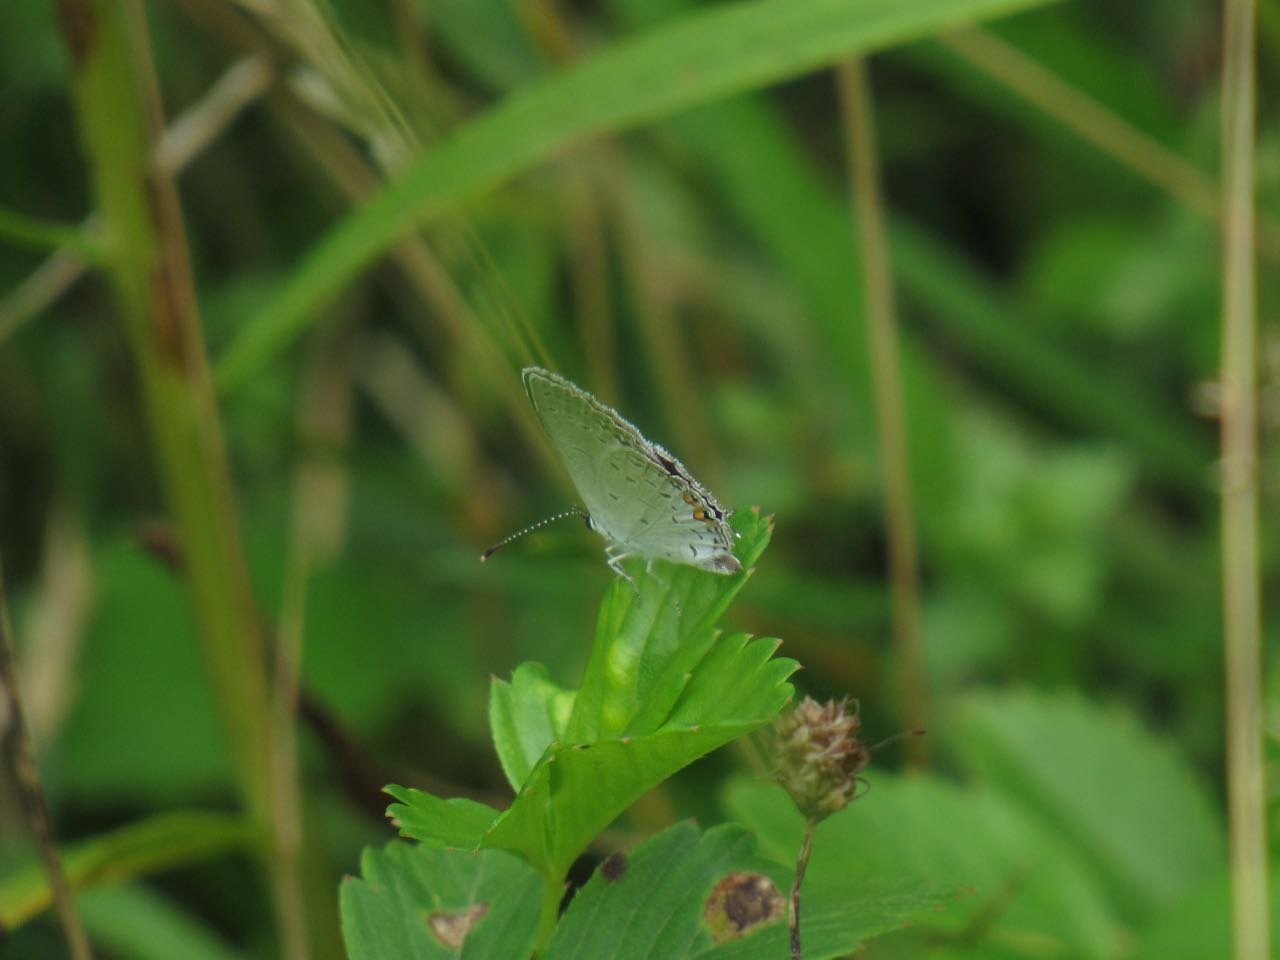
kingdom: Animalia
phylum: Arthropoda
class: Insecta
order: Lepidoptera
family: Lycaenidae
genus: Elkalyce
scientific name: Elkalyce comyntas
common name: Eastern Tailed-Blue
